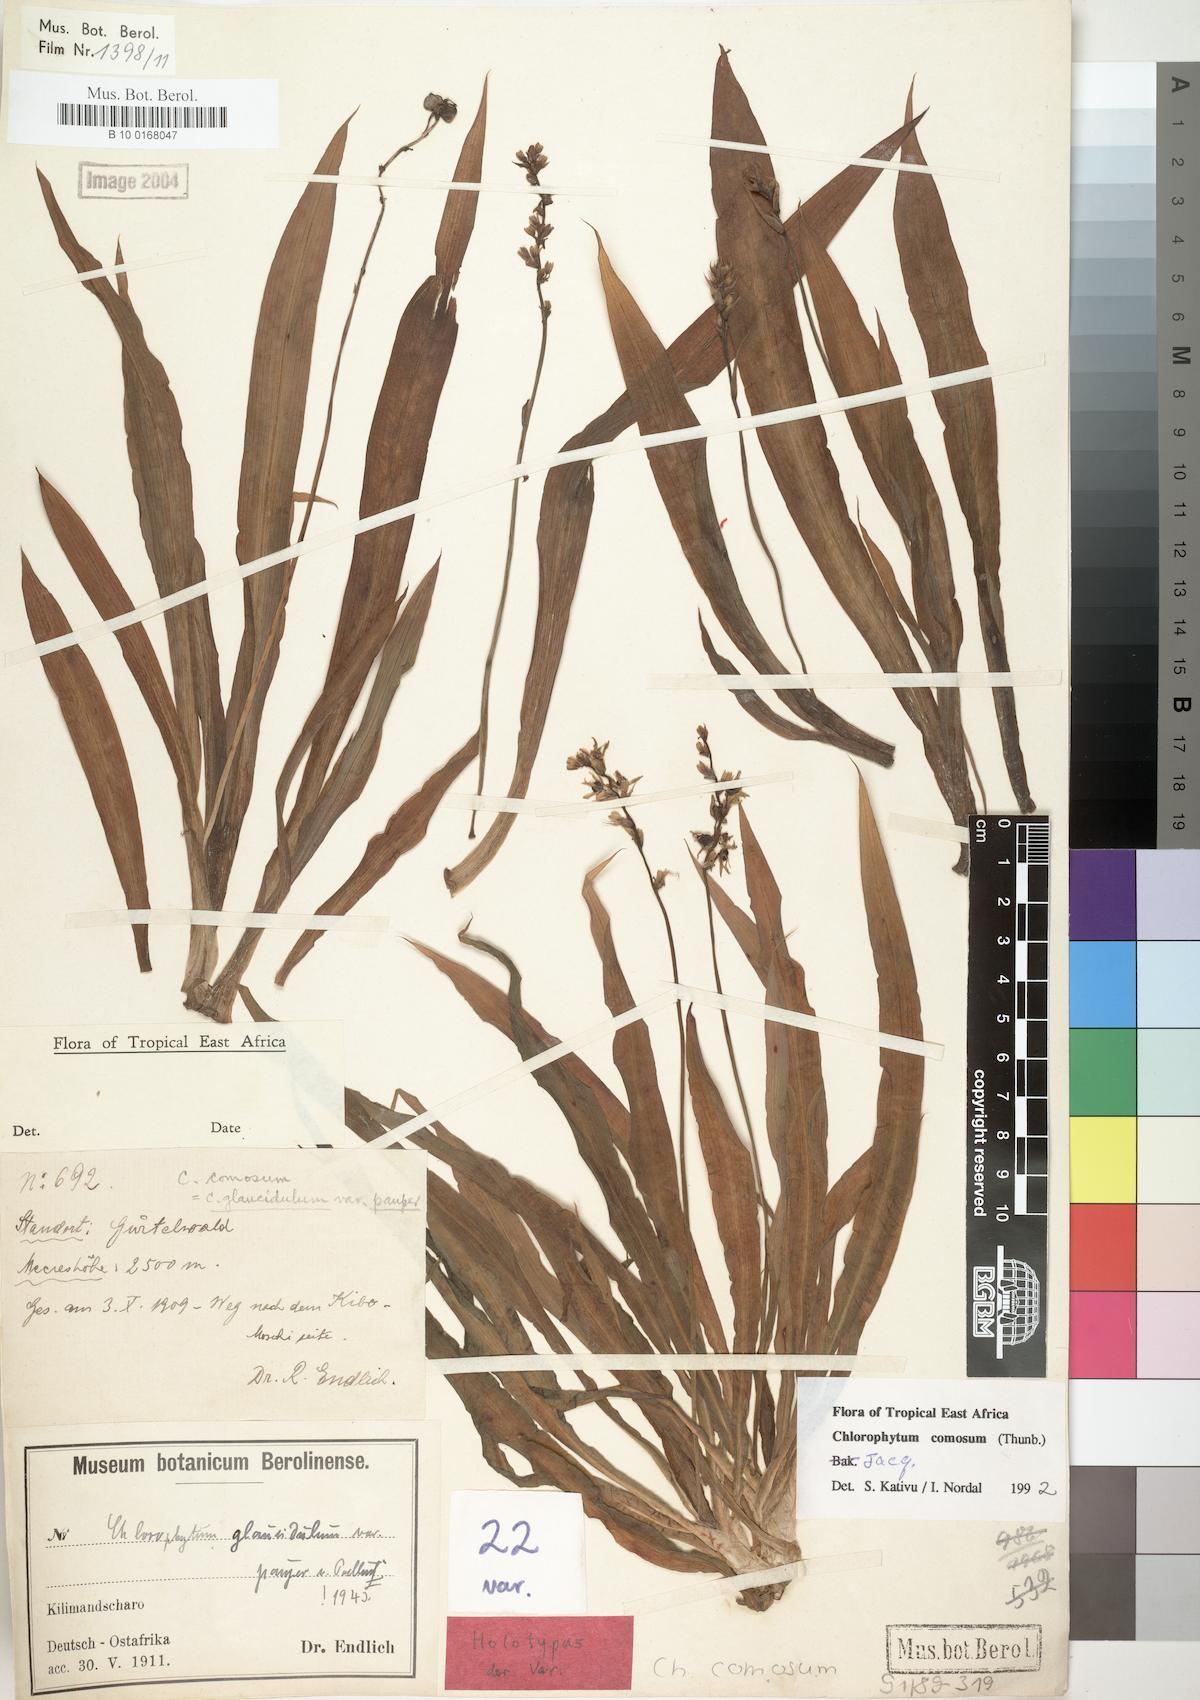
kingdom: Plantae
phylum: Tracheophyta
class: Liliopsida
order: Asparagales
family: Asparagaceae
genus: Chlorophytum
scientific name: Chlorophytum comosum
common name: Spider plant
